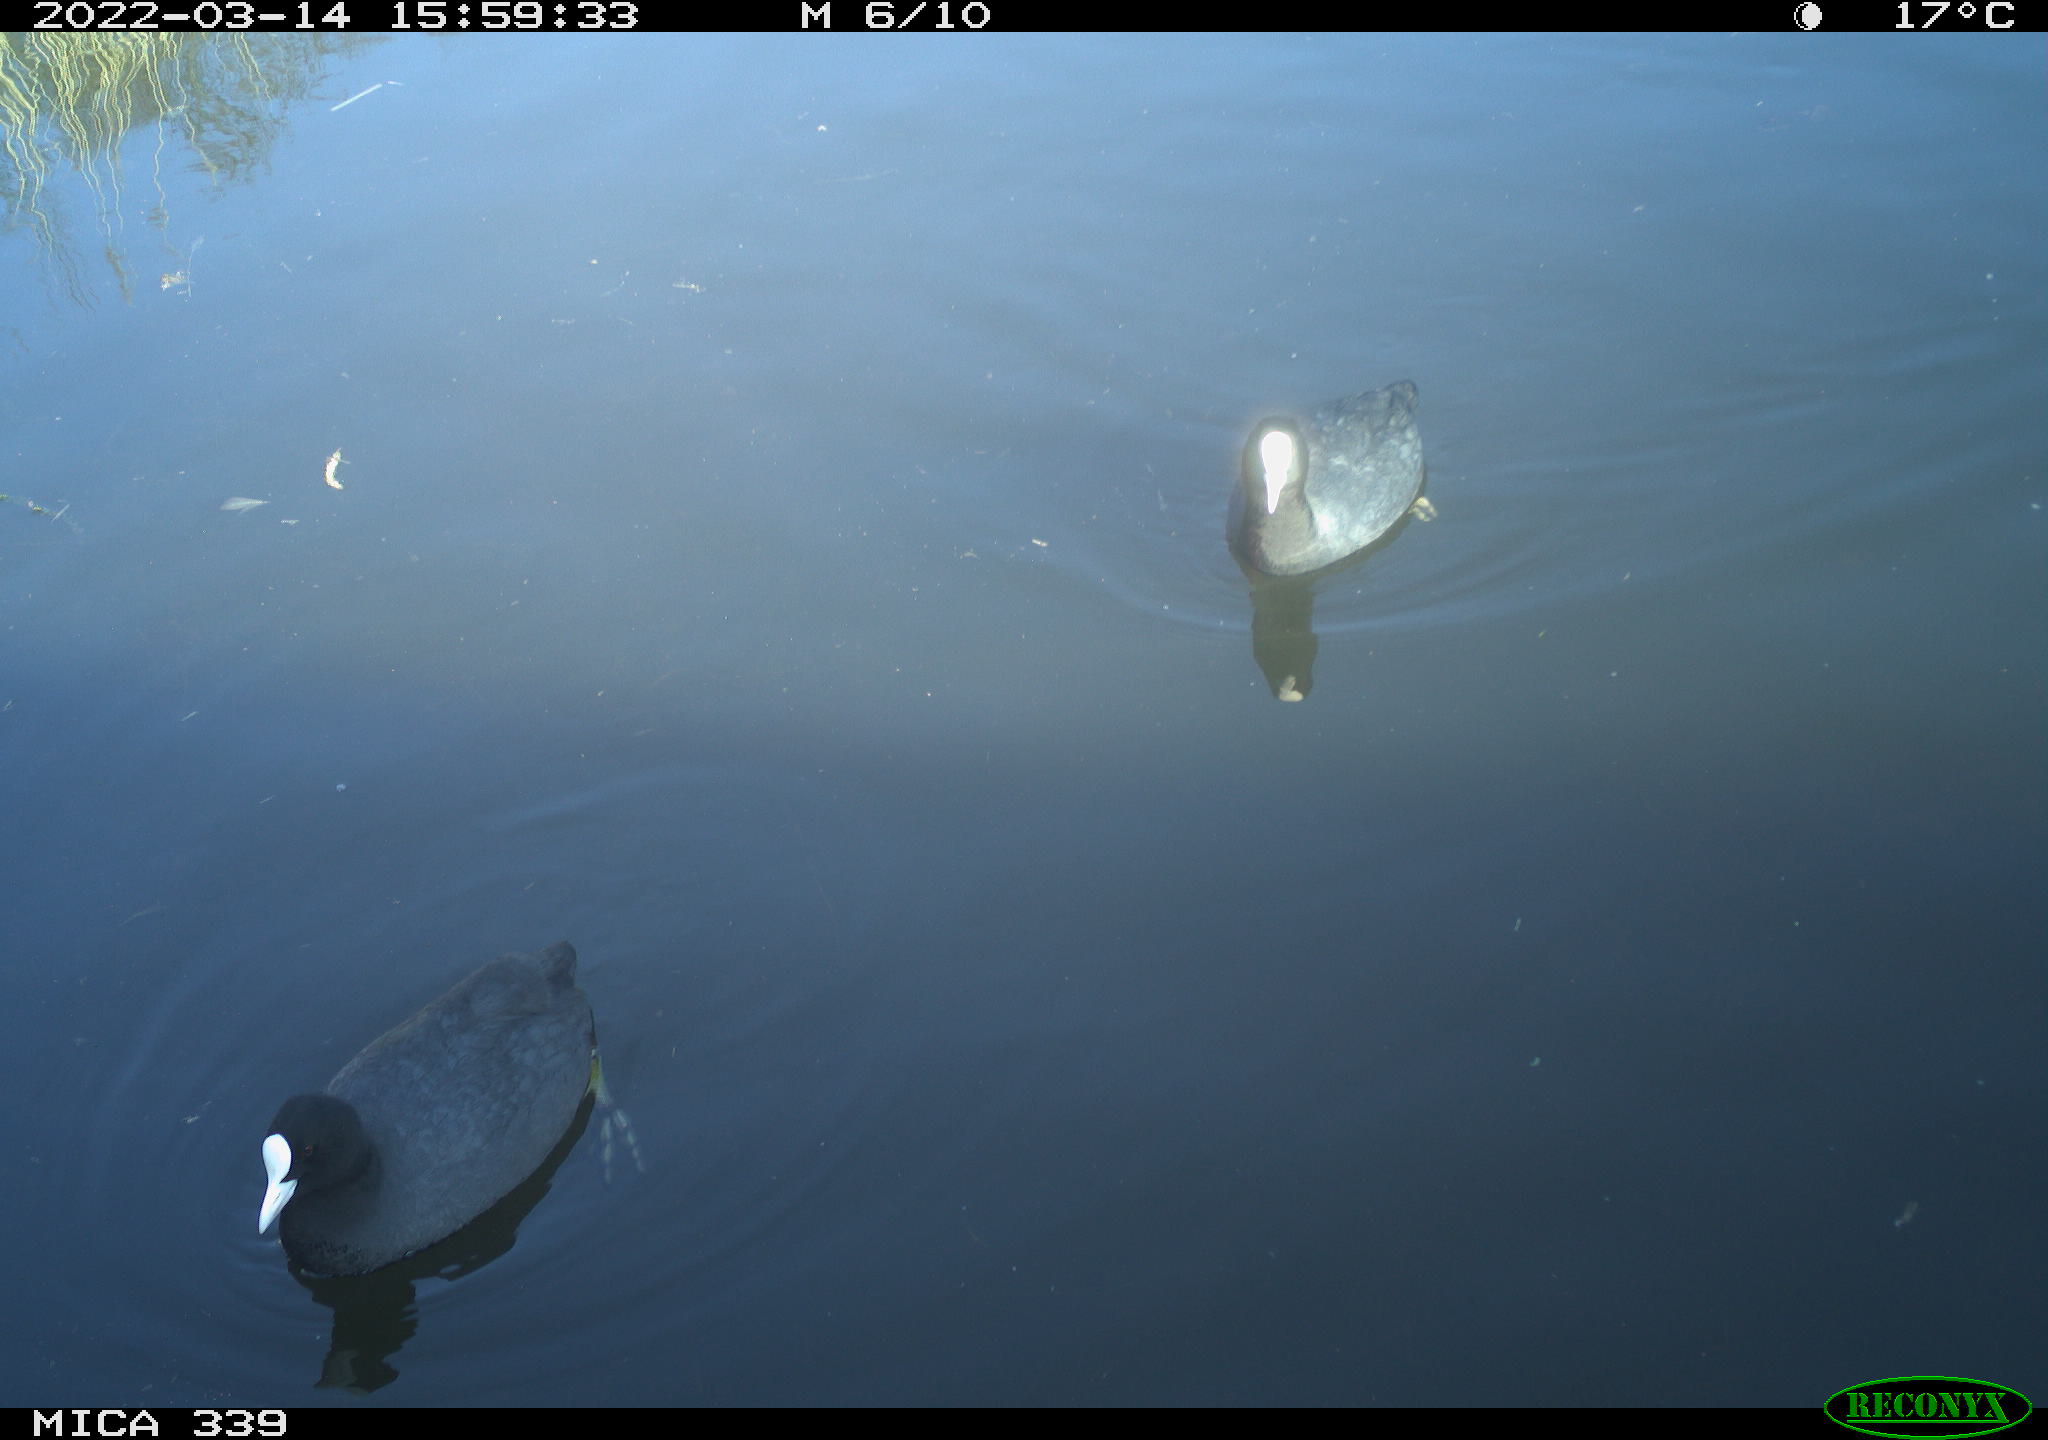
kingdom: Animalia
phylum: Chordata
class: Aves
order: Gruiformes
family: Rallidae
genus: Fulica
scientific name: Fulica atra
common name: Eurasian coot
